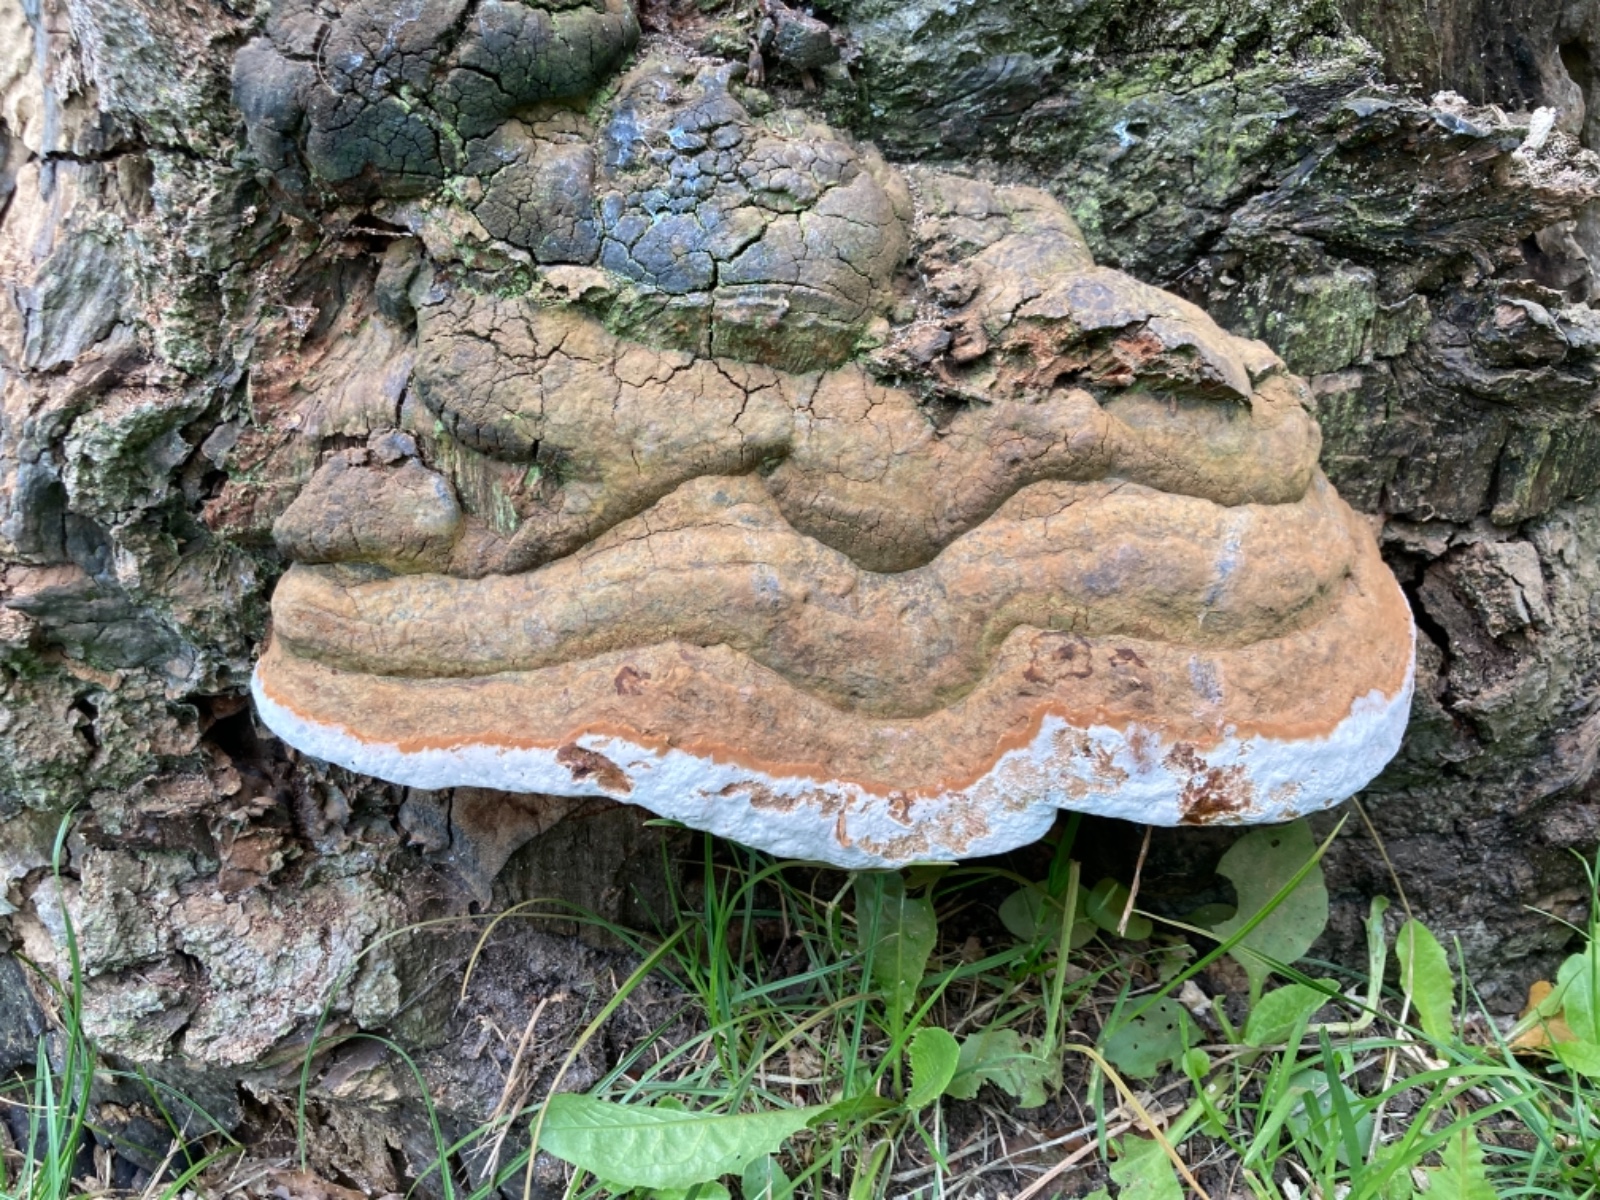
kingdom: Fungi
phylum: Basidiomycota
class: Agaricomycetes
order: Polyporales
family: Polyporaceae
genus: Ganoderma
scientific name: Ganoderma adspersum
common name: grov lakporesvamp
